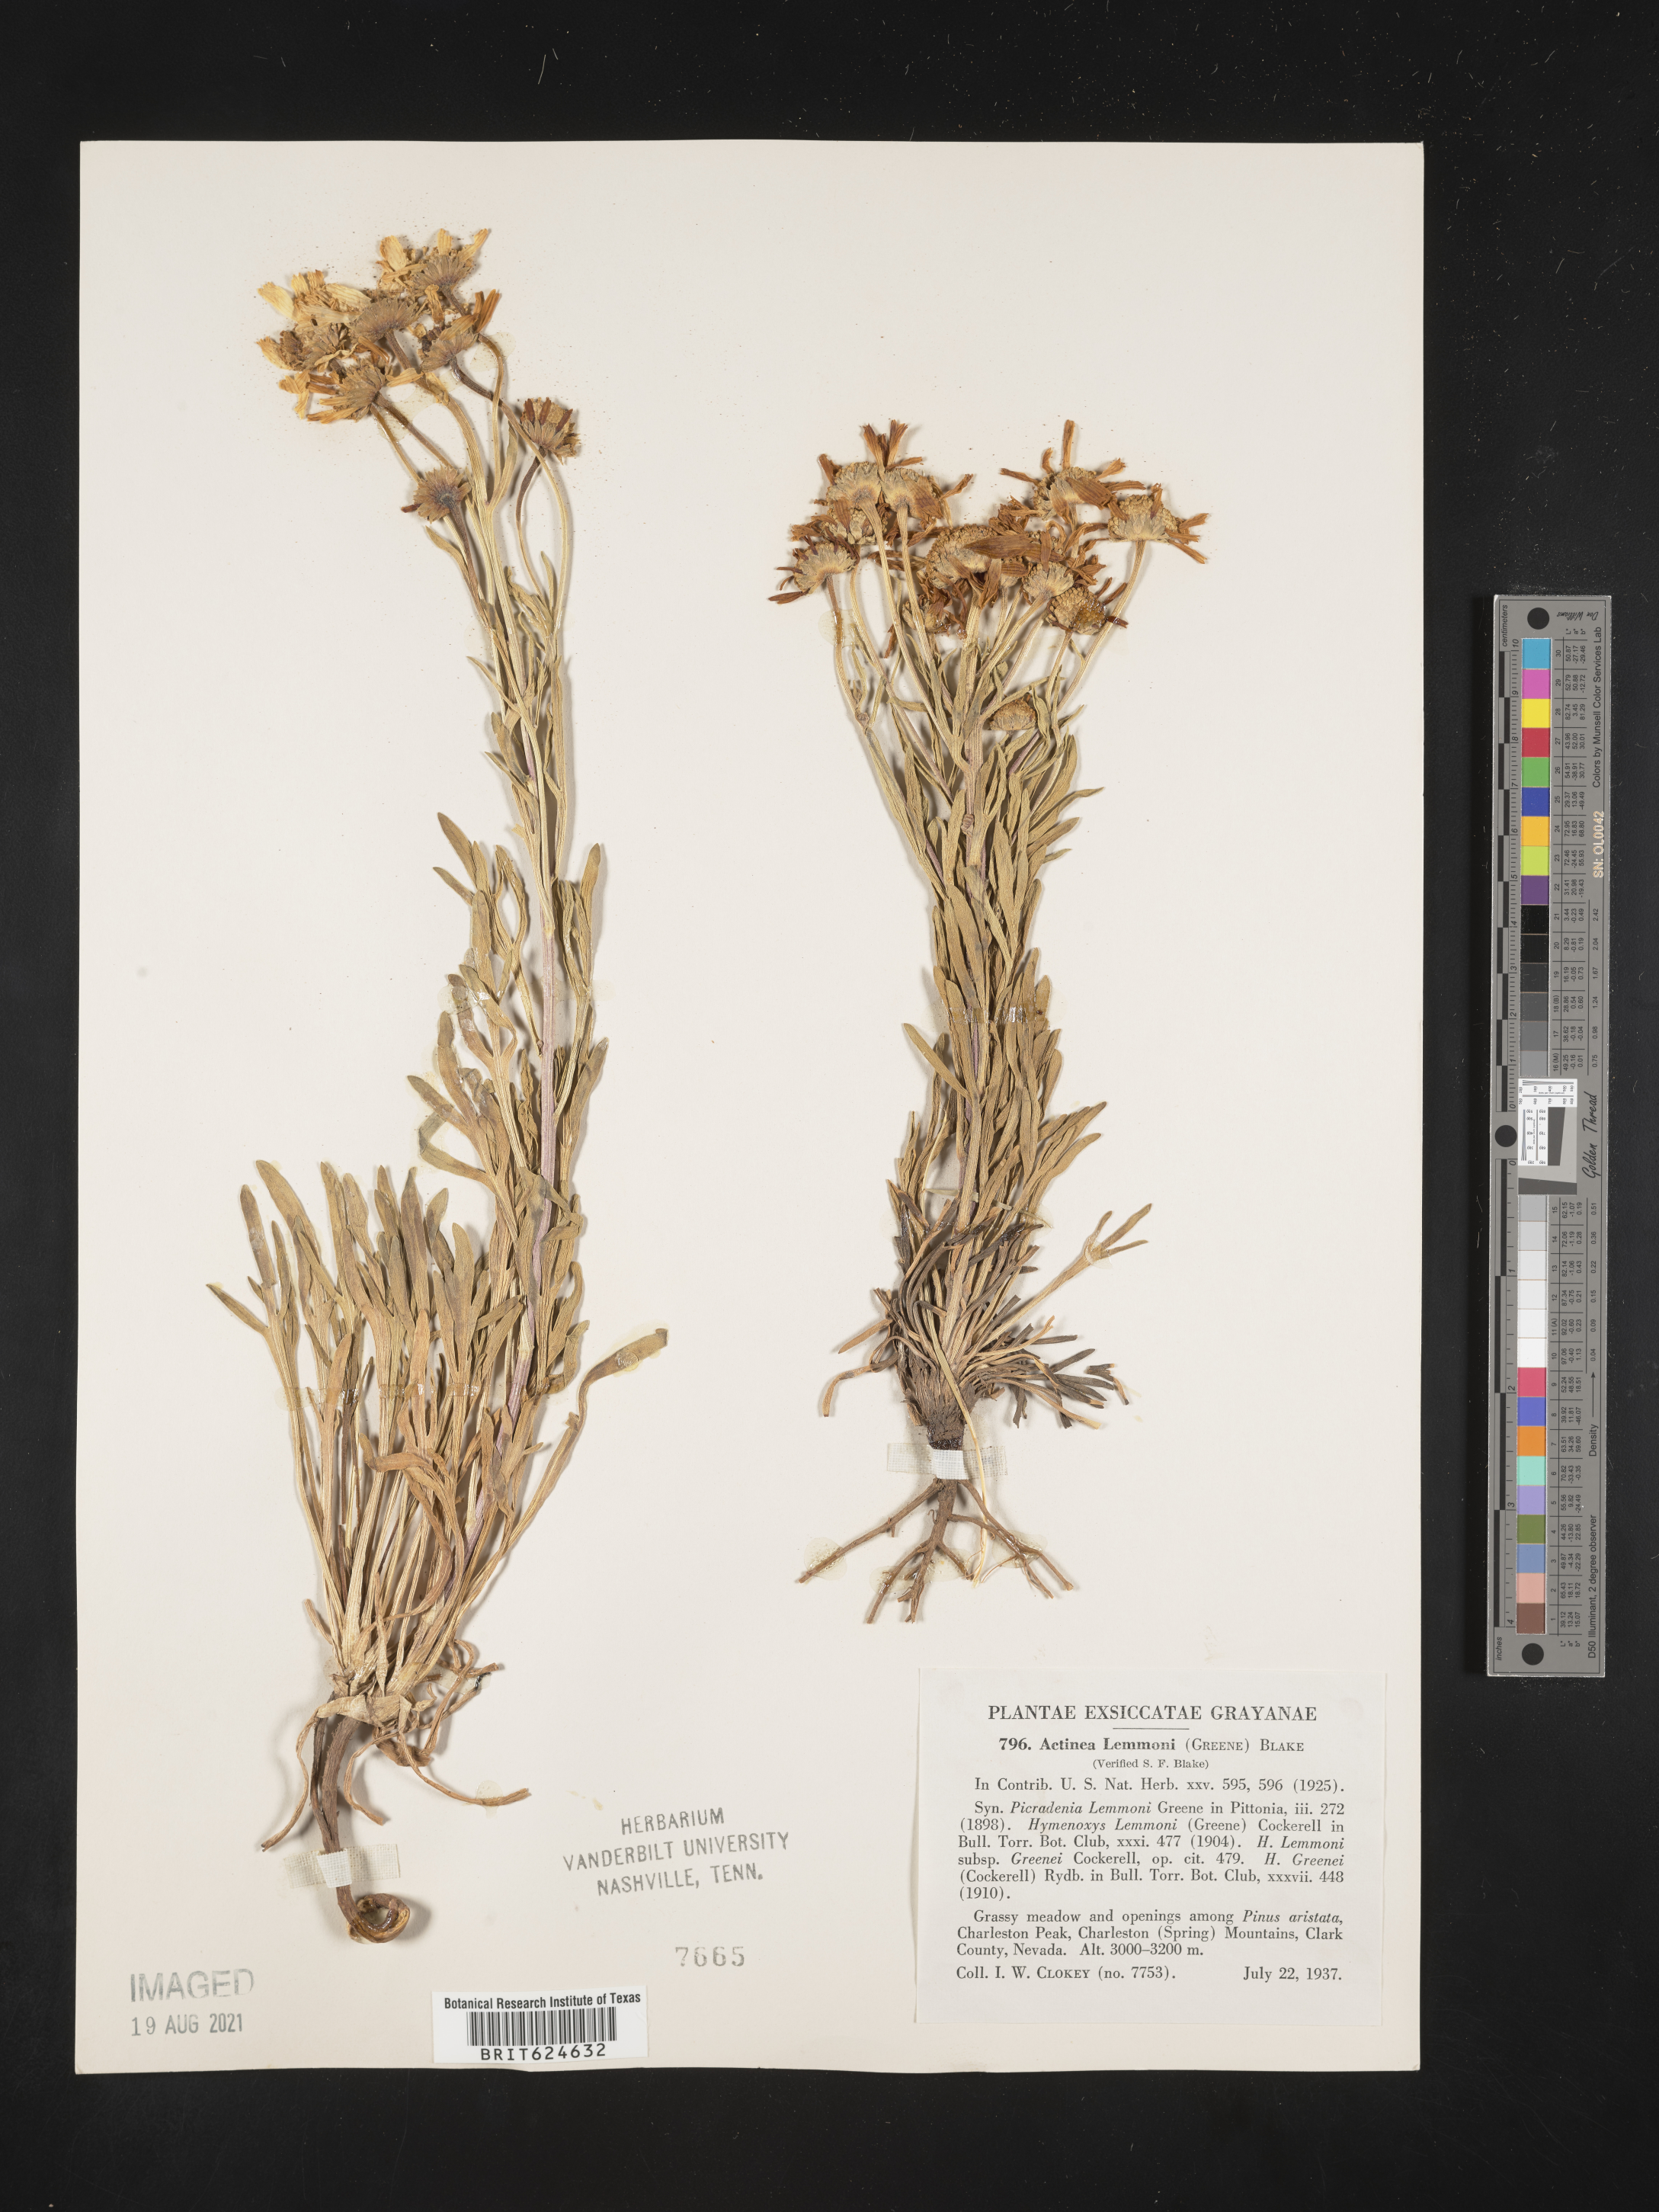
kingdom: Plantae
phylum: Tracheophyta
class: Magnoliopsida
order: Asterales
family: Asteraceae
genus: Hymenoxys
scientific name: Hymenoxys lemmonii
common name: Lemmon's bitterweed
